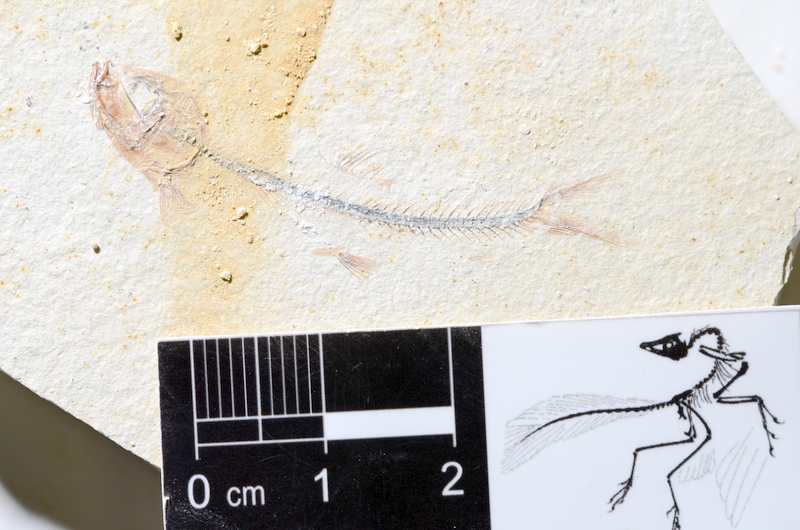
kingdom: Animalia
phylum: Chordata
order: Salmoniformes
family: Orthogonikleithridae
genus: Orthogonikleithrus
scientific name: Orthogonikleithrus hoelli
